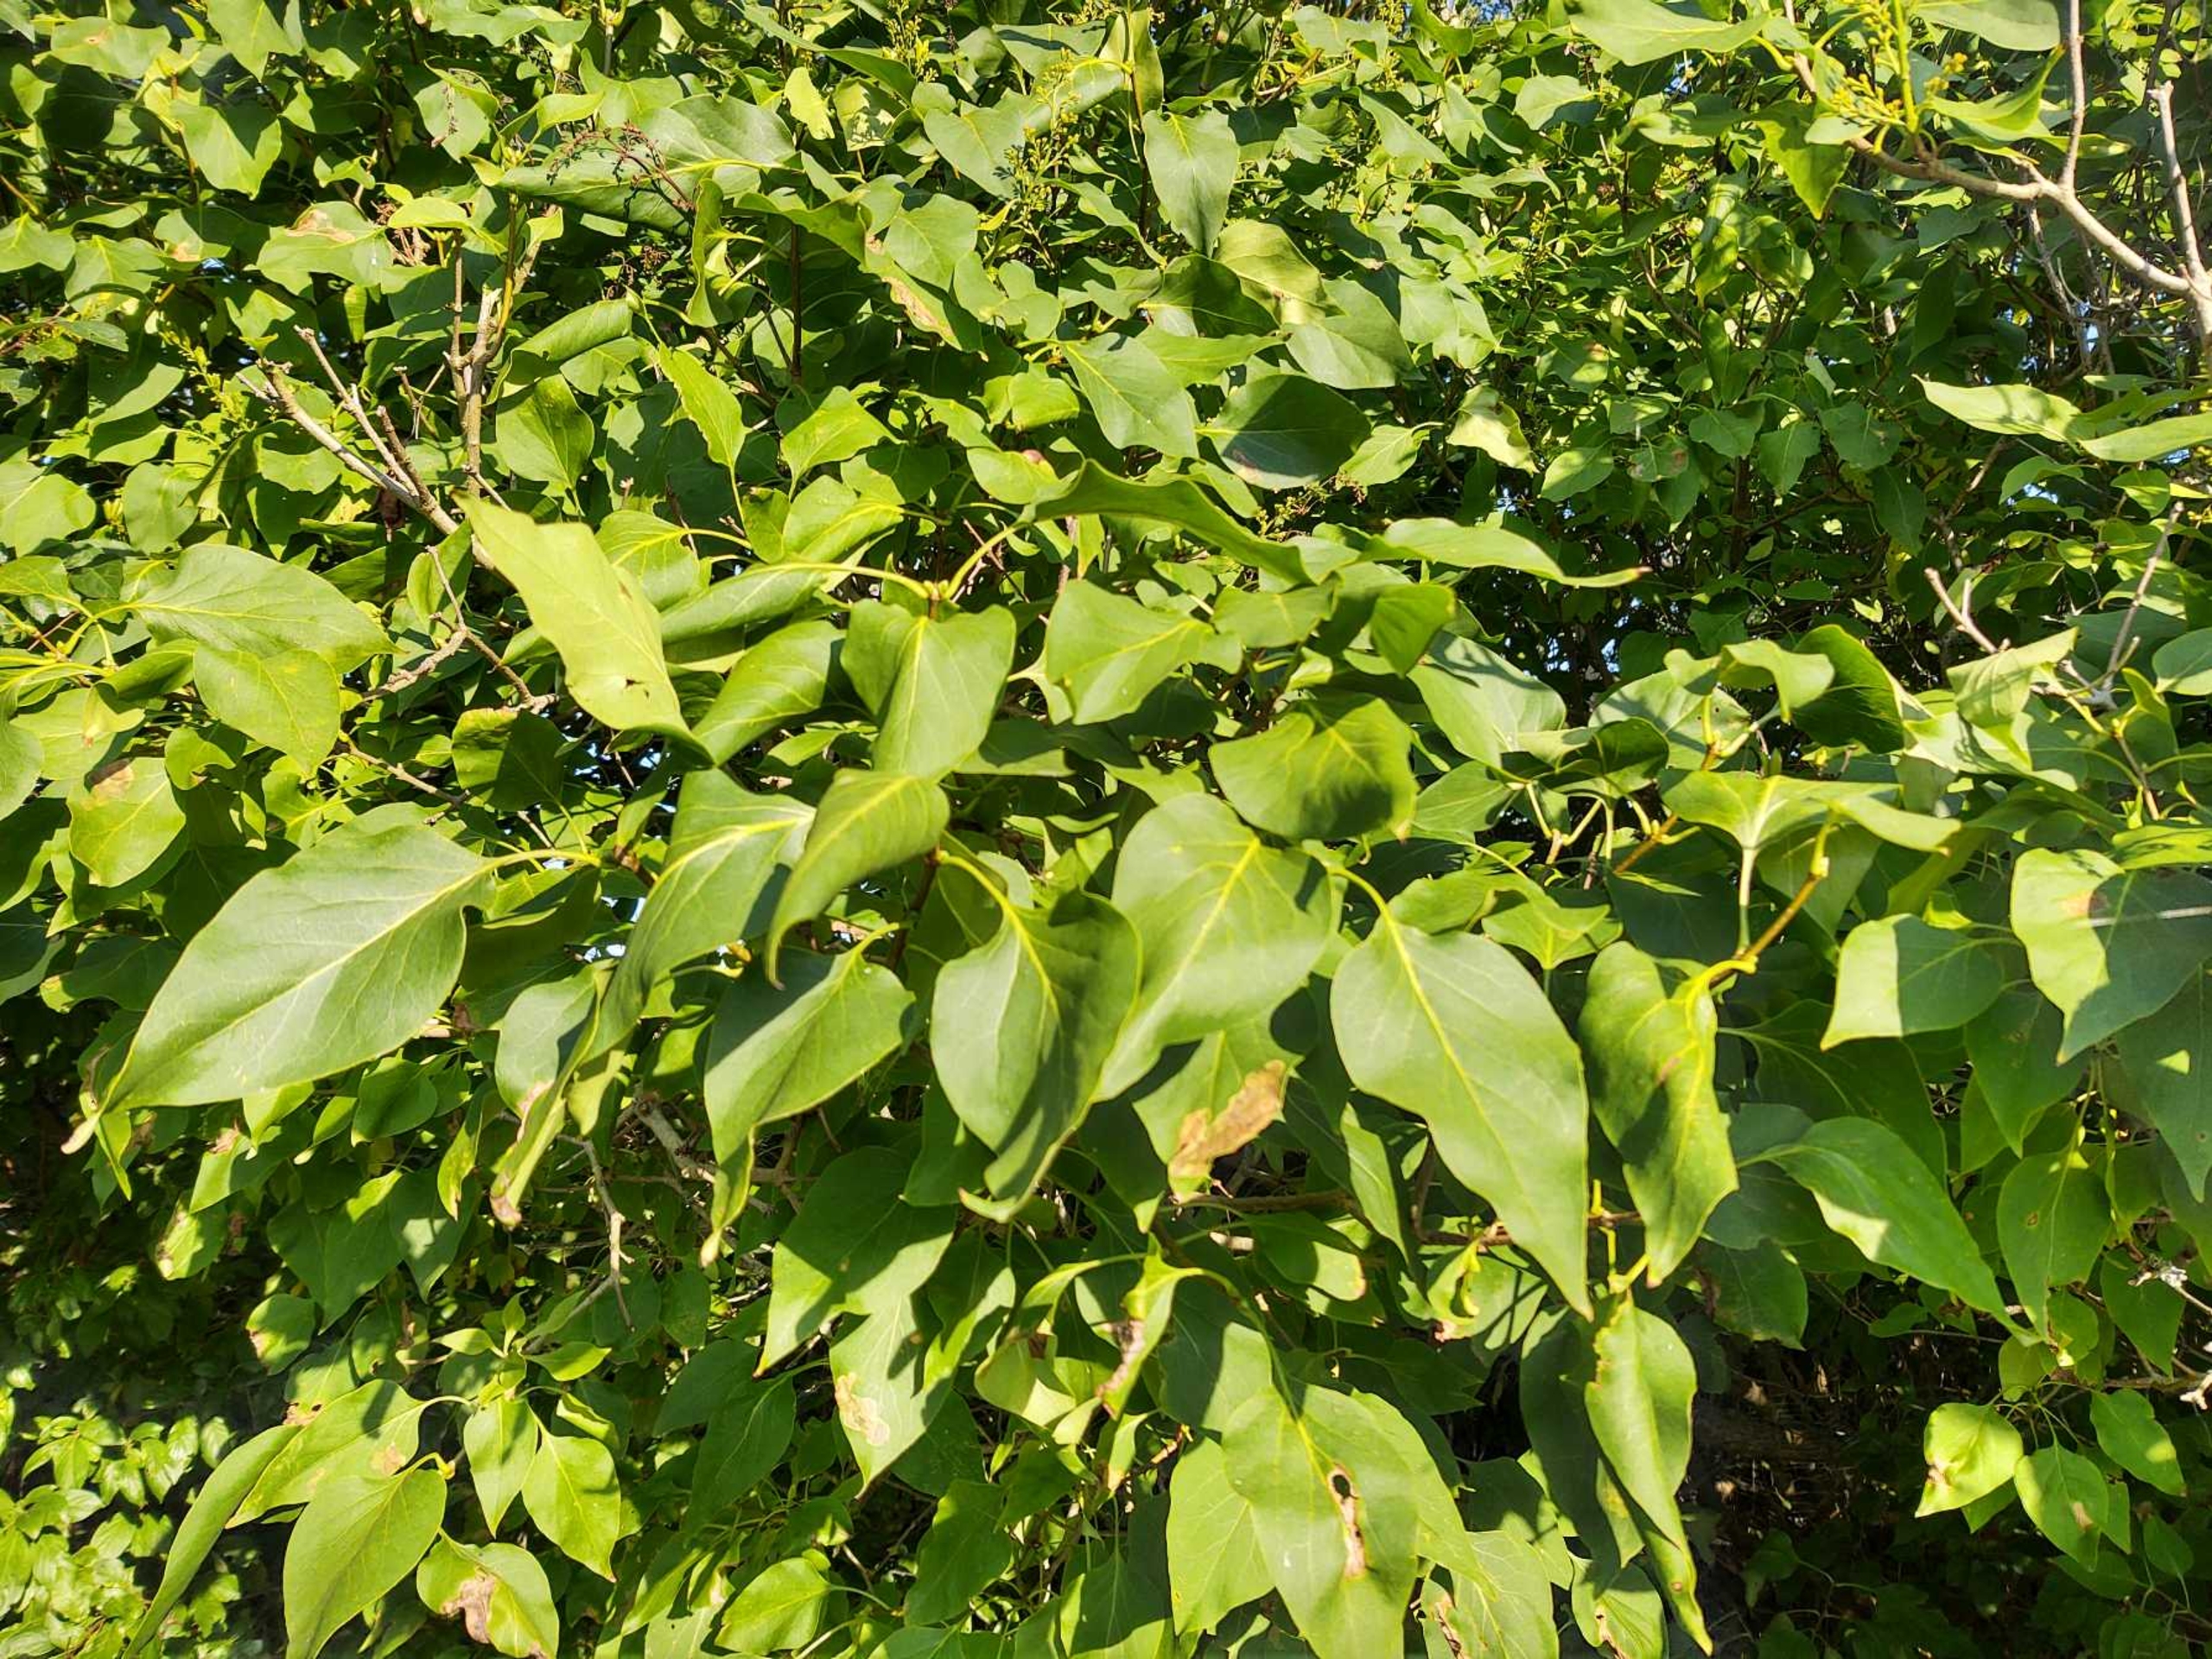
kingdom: Plantae
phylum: Tracheophyta
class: Magnoliopsida
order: Lamiales
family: Oleaceae
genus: Syringa
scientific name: Syringa vulgaris
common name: Syren
